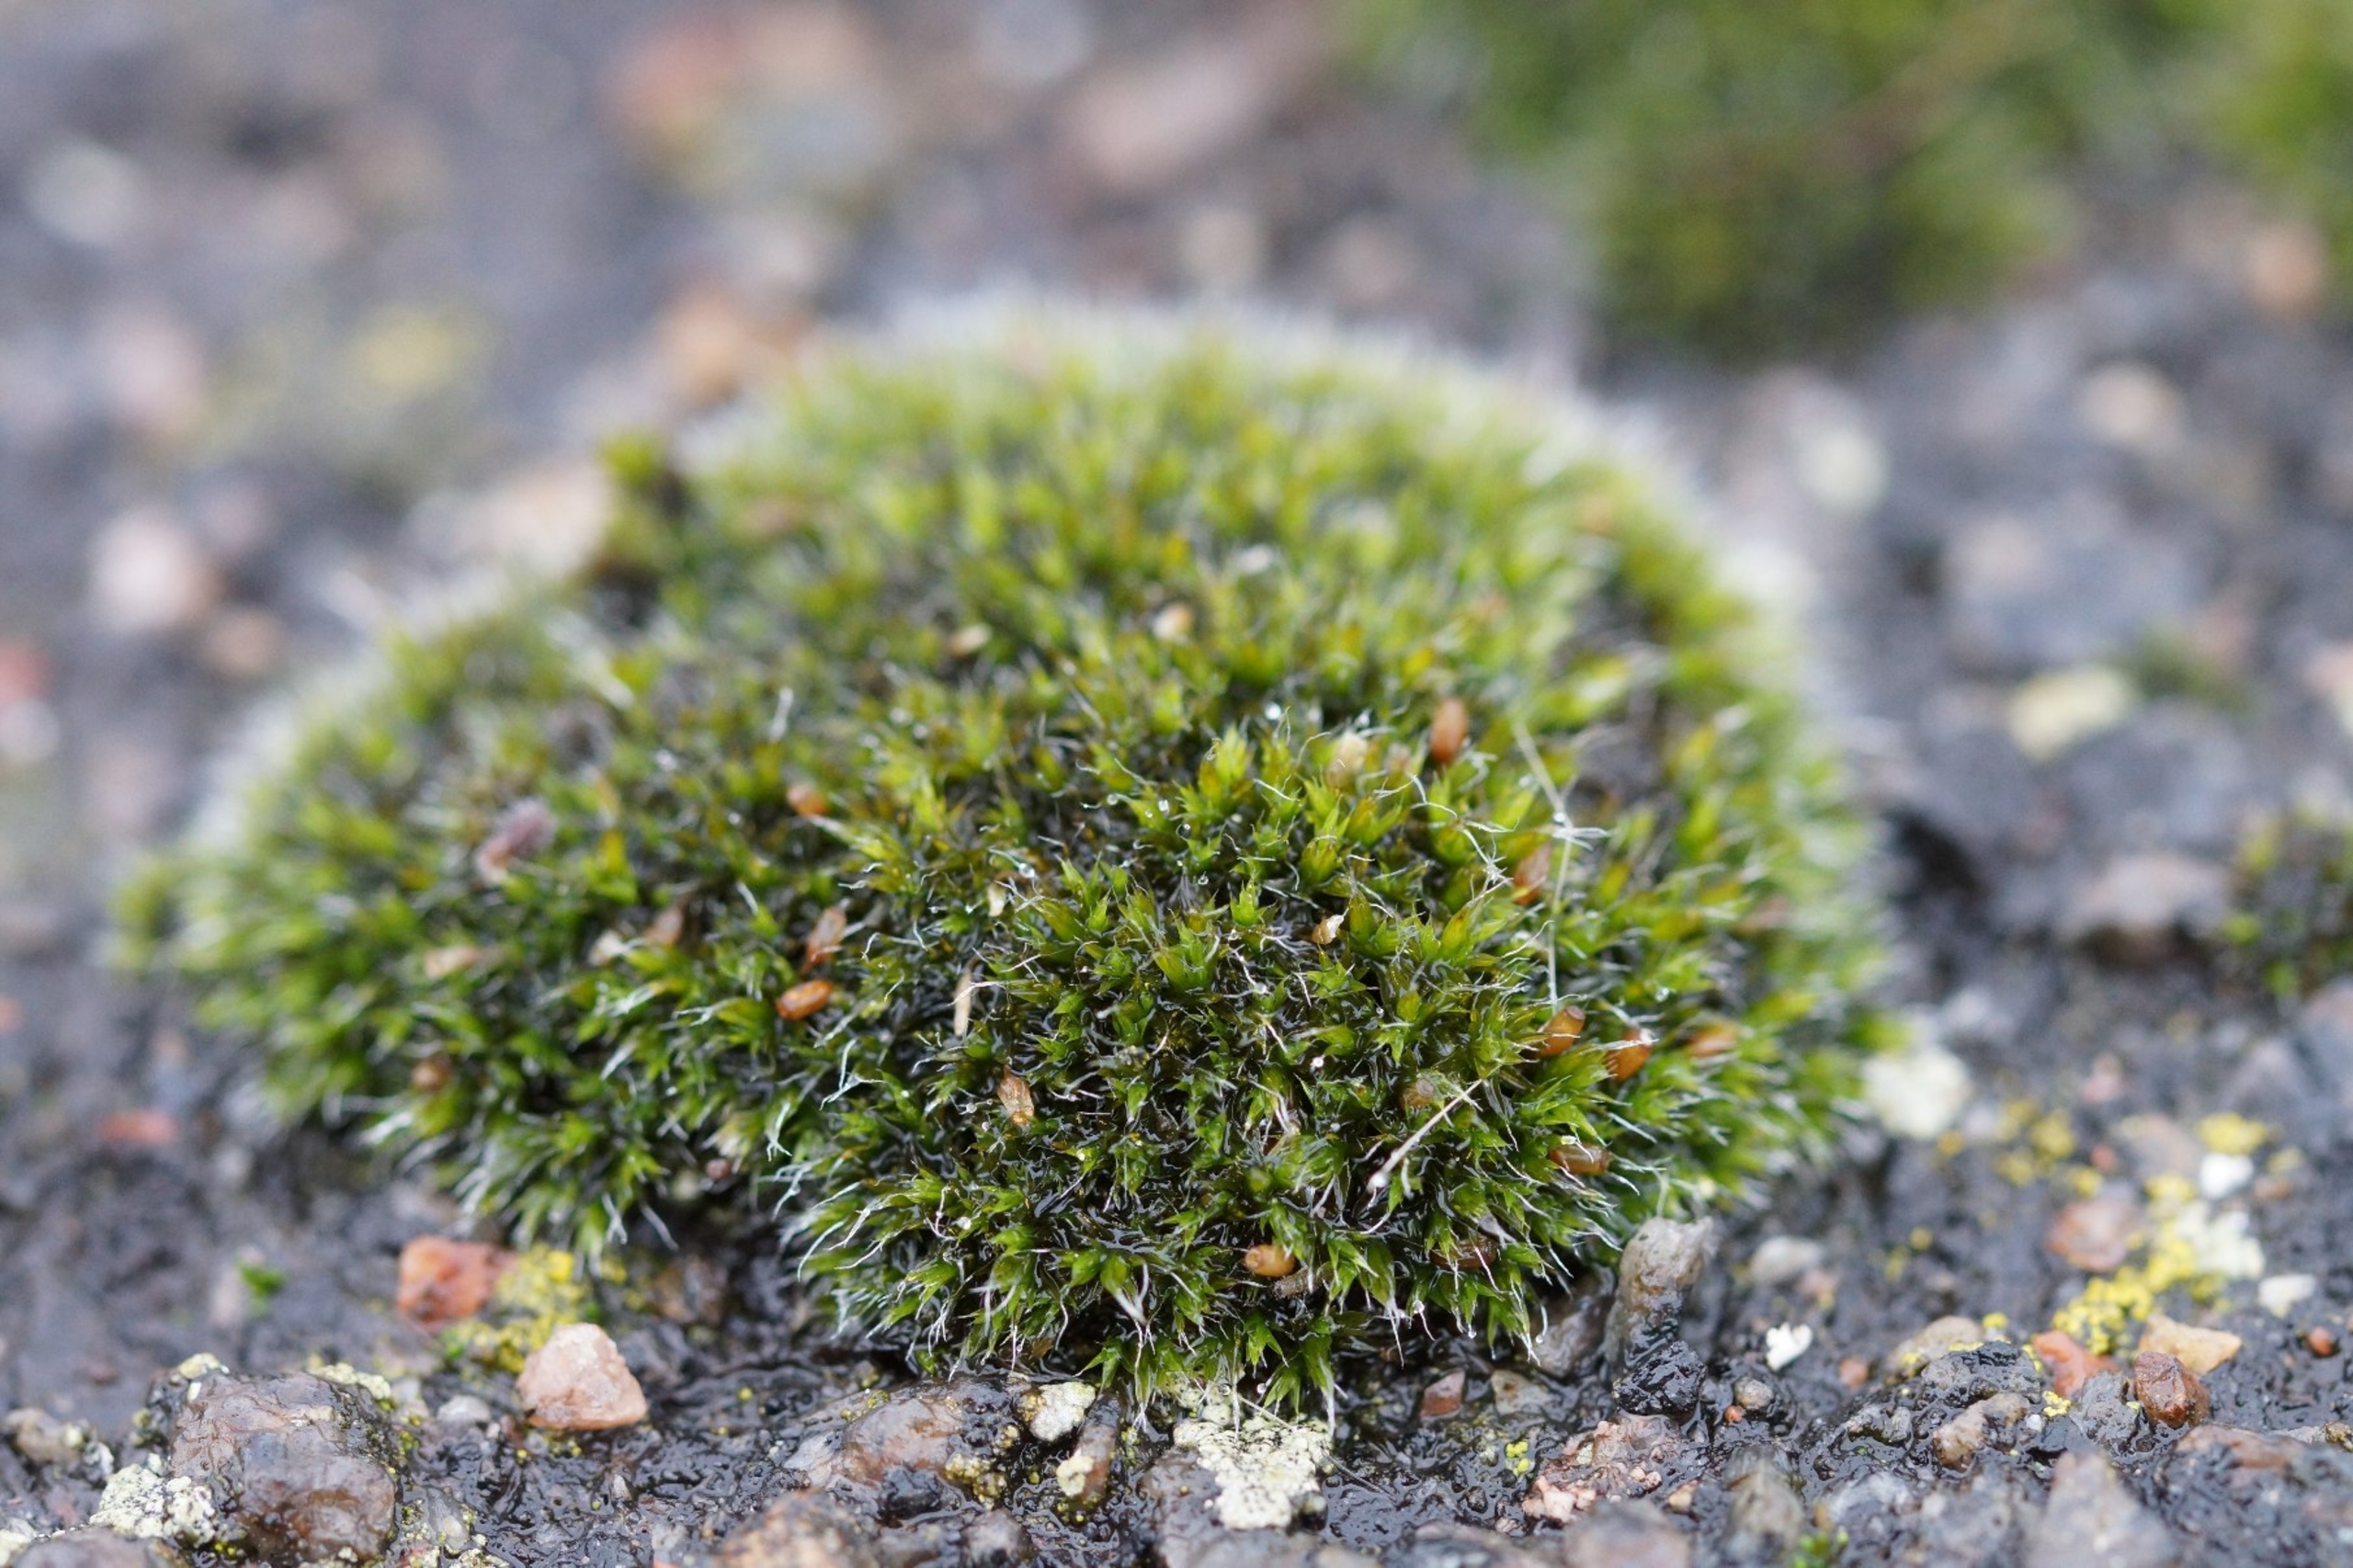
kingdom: Plantae
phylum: Bryophyta
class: Bryopsida
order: Grimmiales
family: Grimmiaceae
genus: Grimmia
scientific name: Grimmia pulvinata
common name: Pude-gråmos
